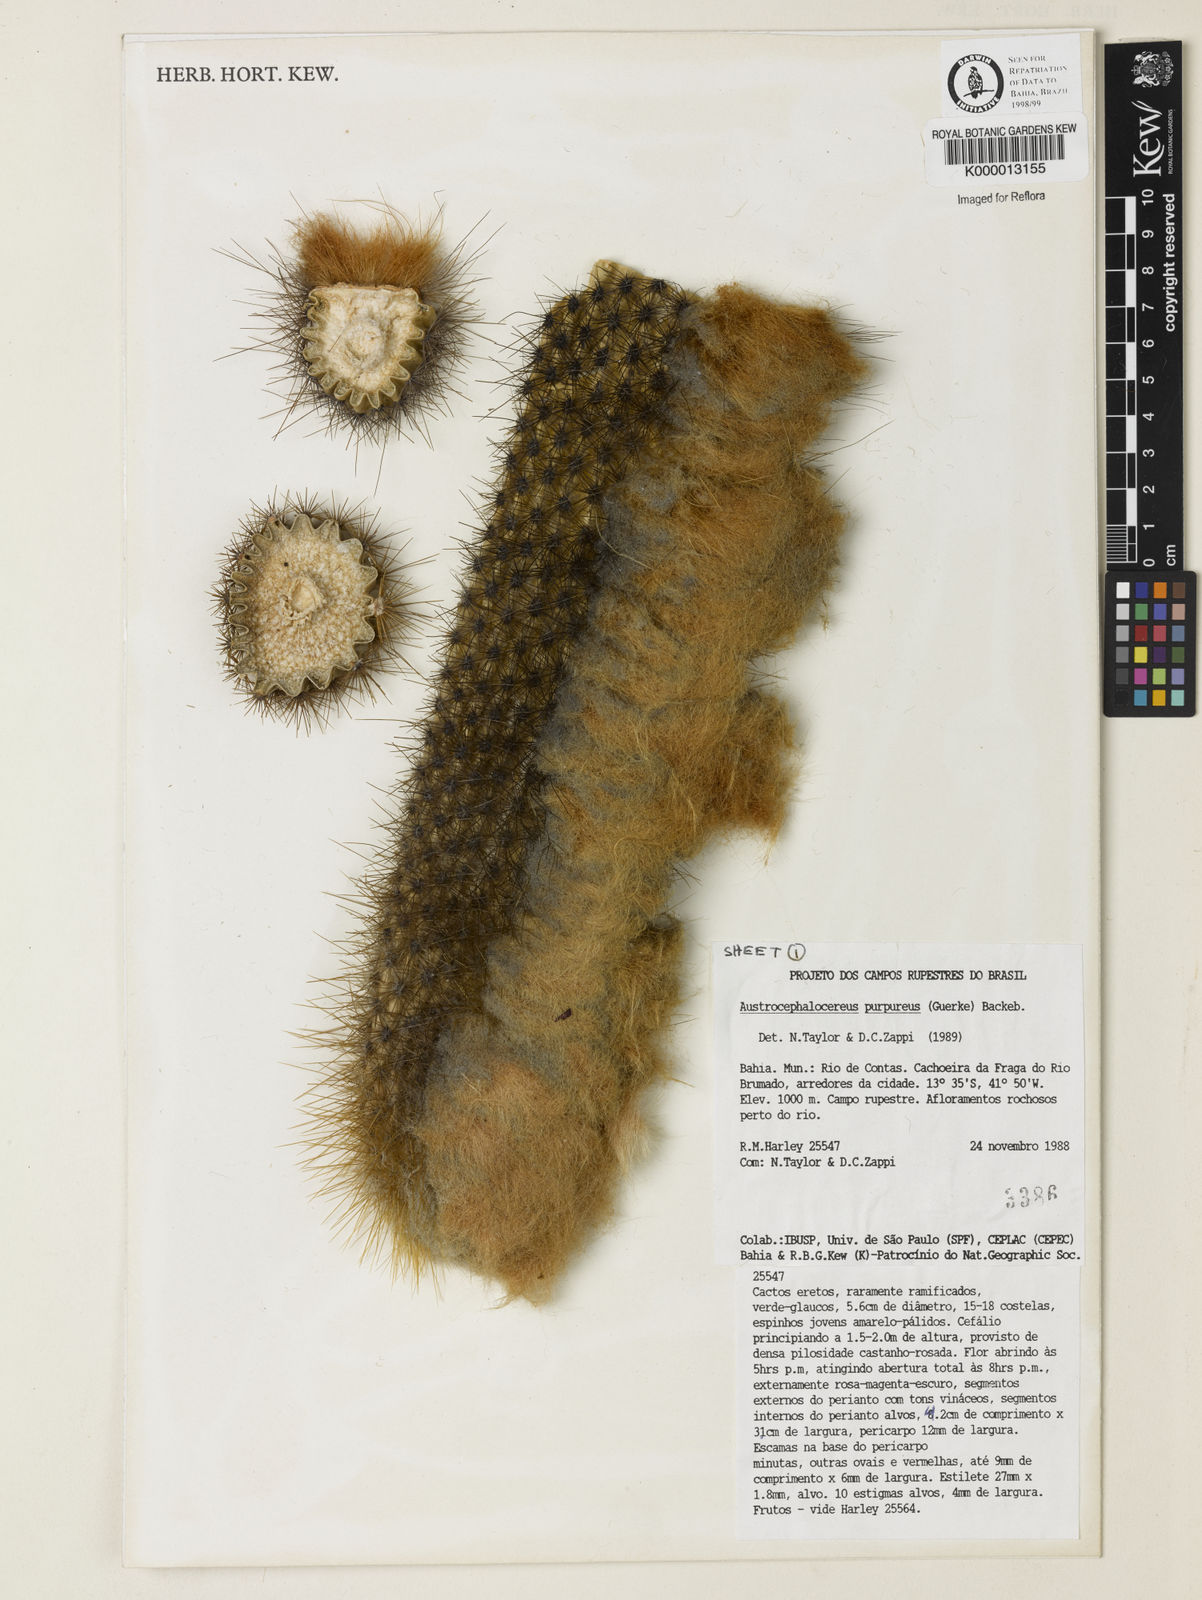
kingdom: Plantae
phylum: Tracheophyta
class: Magnoliopsida
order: Caryophyllales
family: Cactaceae
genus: Micranthocereus
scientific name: Micranthocereus purpureus
